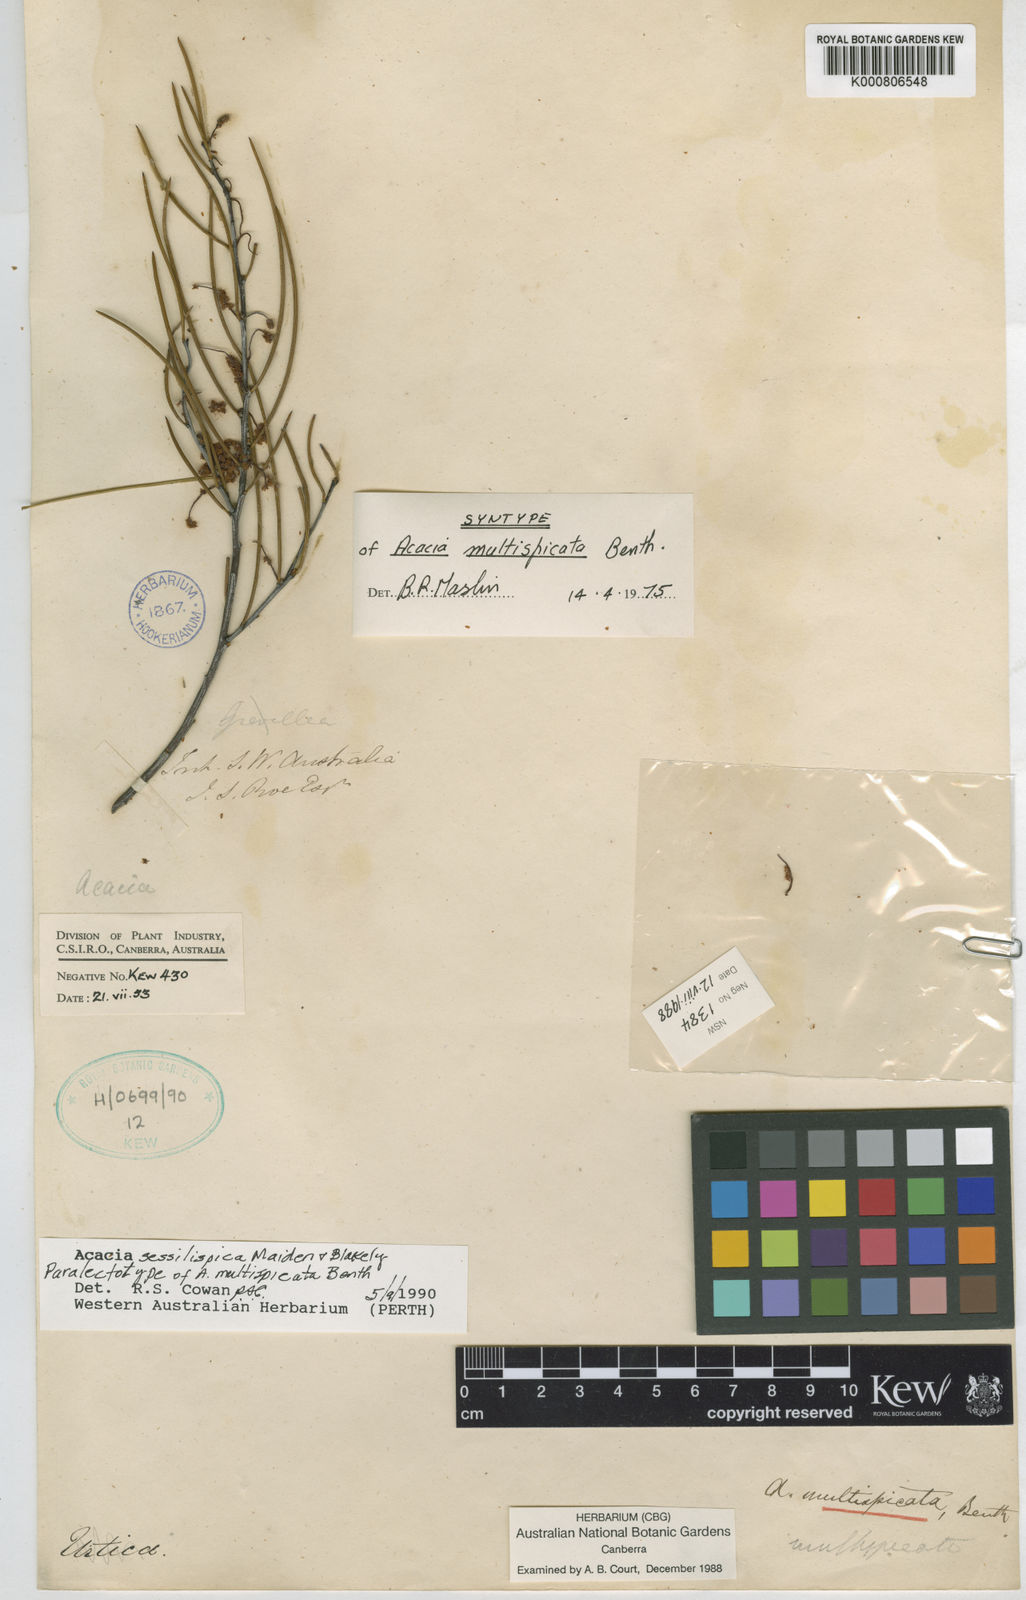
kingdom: Plantae
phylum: Tracheophyta
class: Magnoliopsida
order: Fabales
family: Fabaceae
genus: Acacia
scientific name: Acacia multispicata
